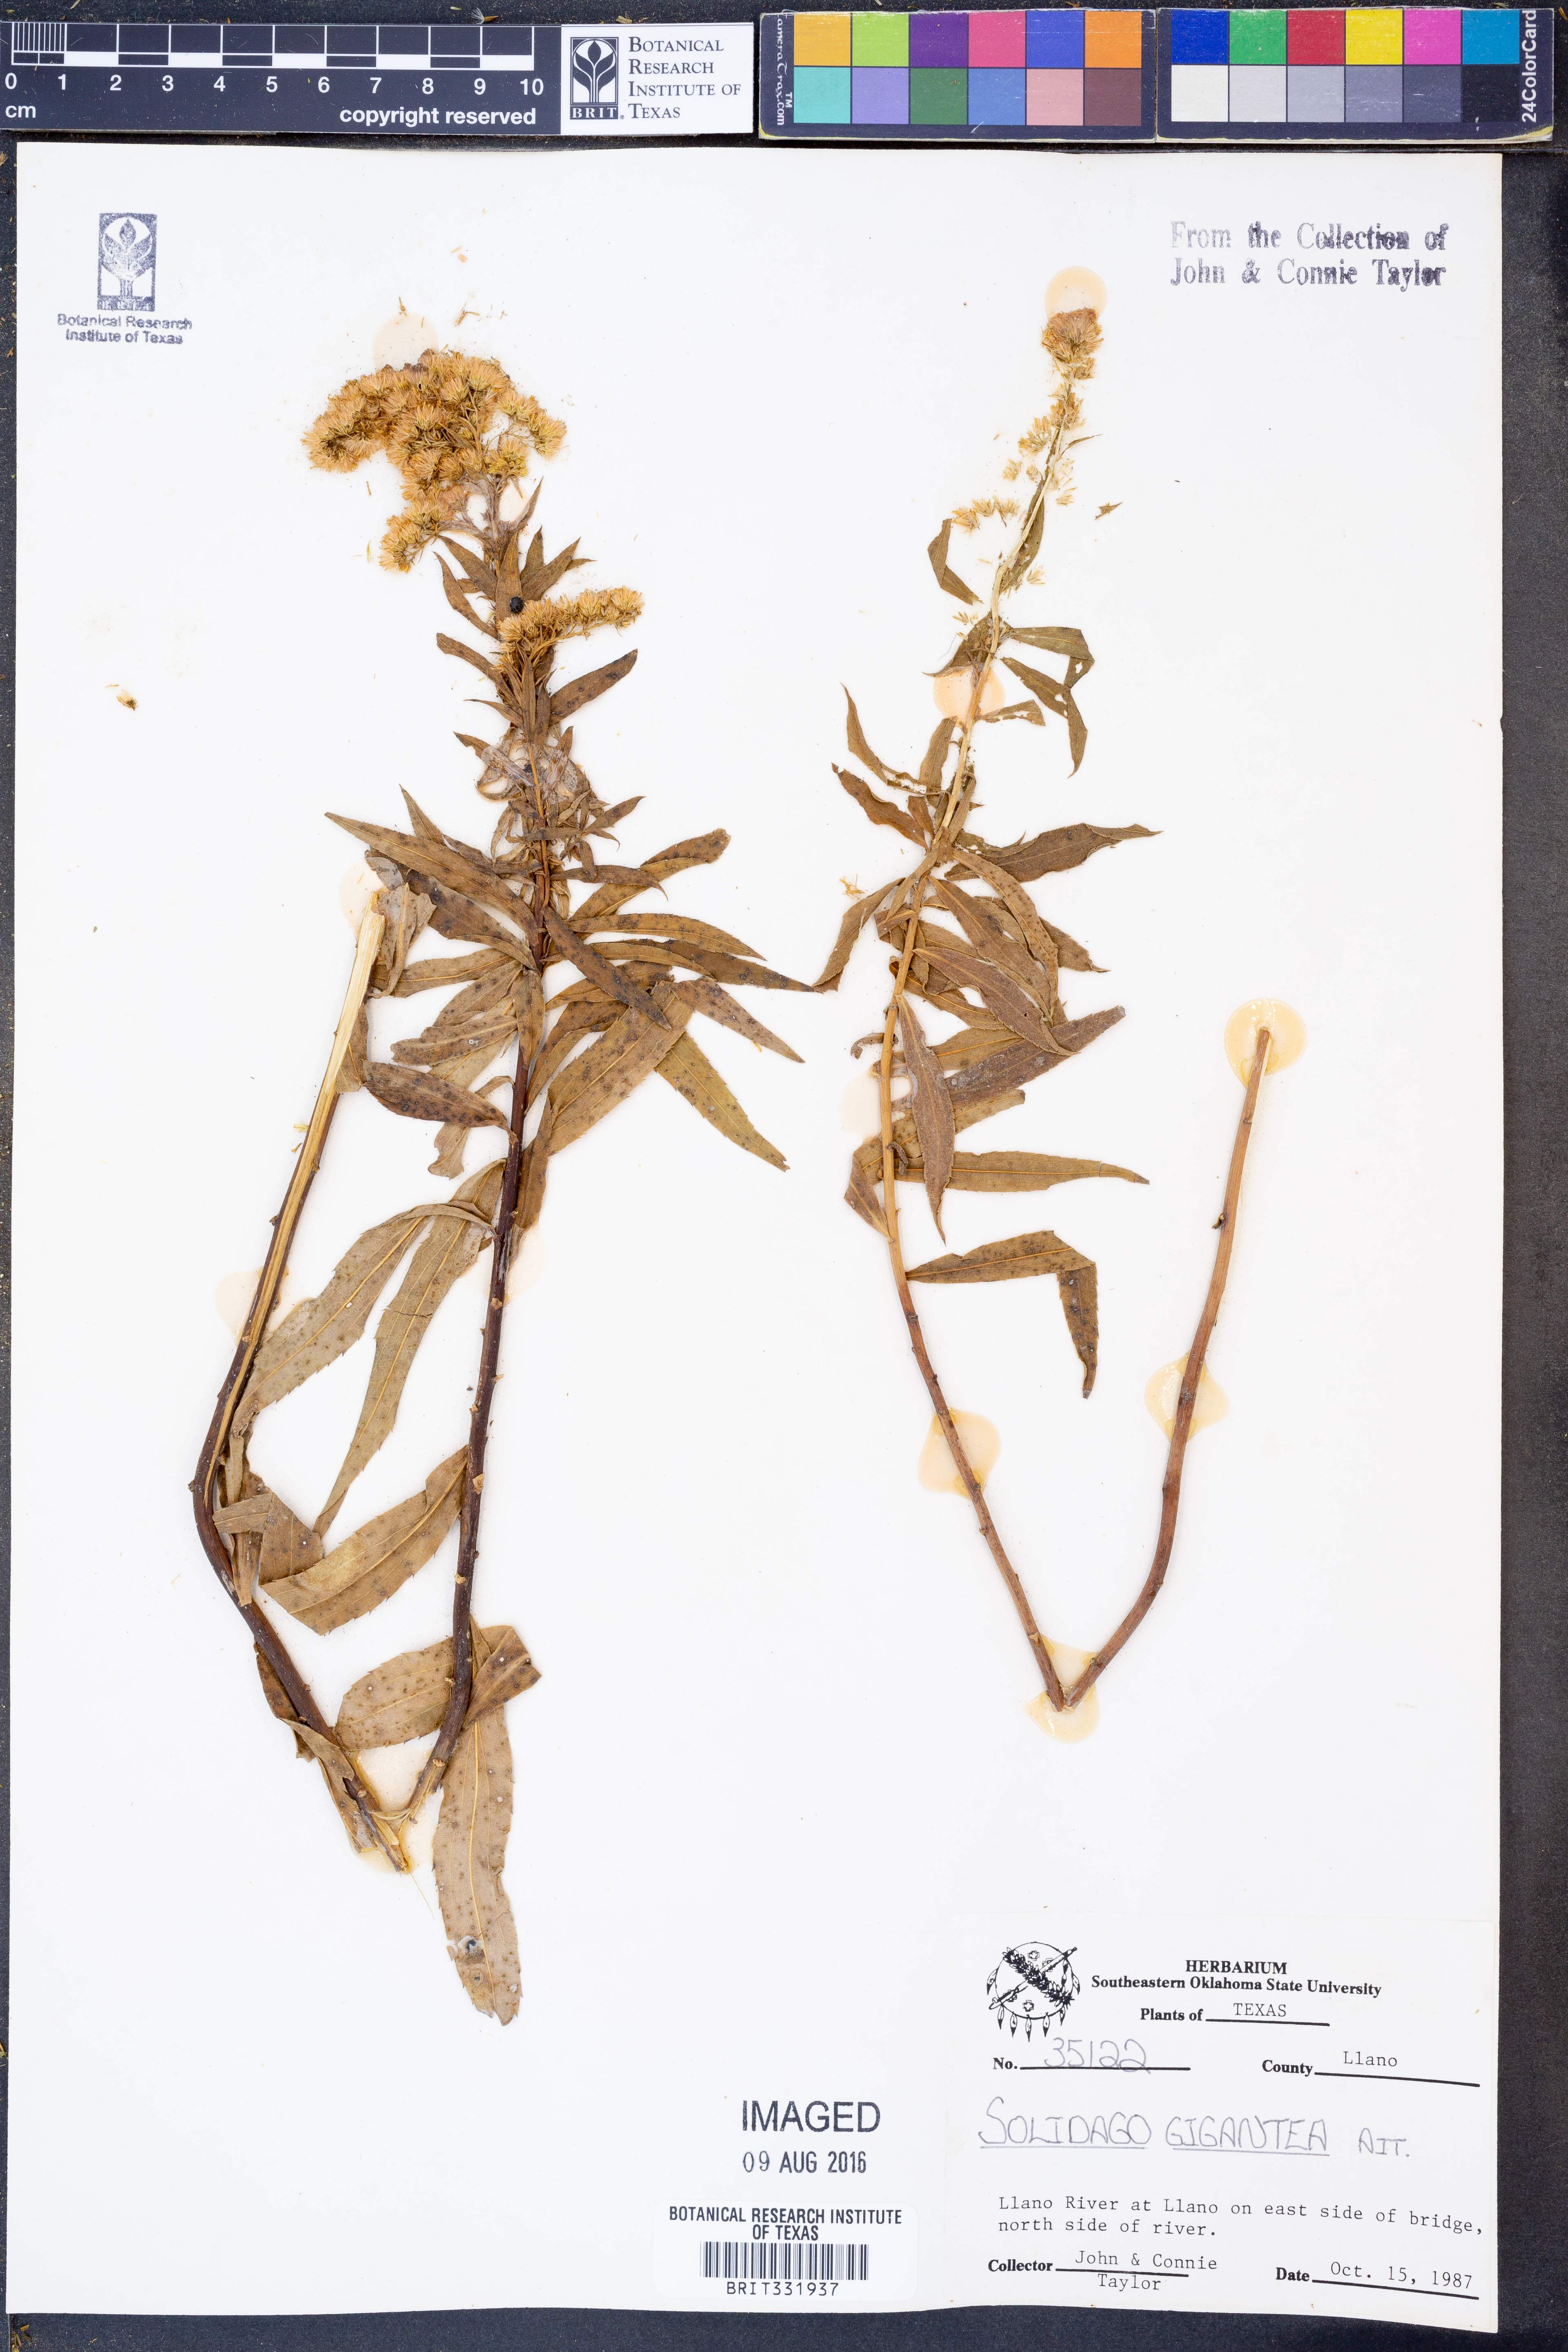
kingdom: Plantae
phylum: Tracheophyta
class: Magnoliopsida
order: Asterales
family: Asteraceae
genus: Solidago
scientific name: Solidago gigantea
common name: Giant goldenrod
